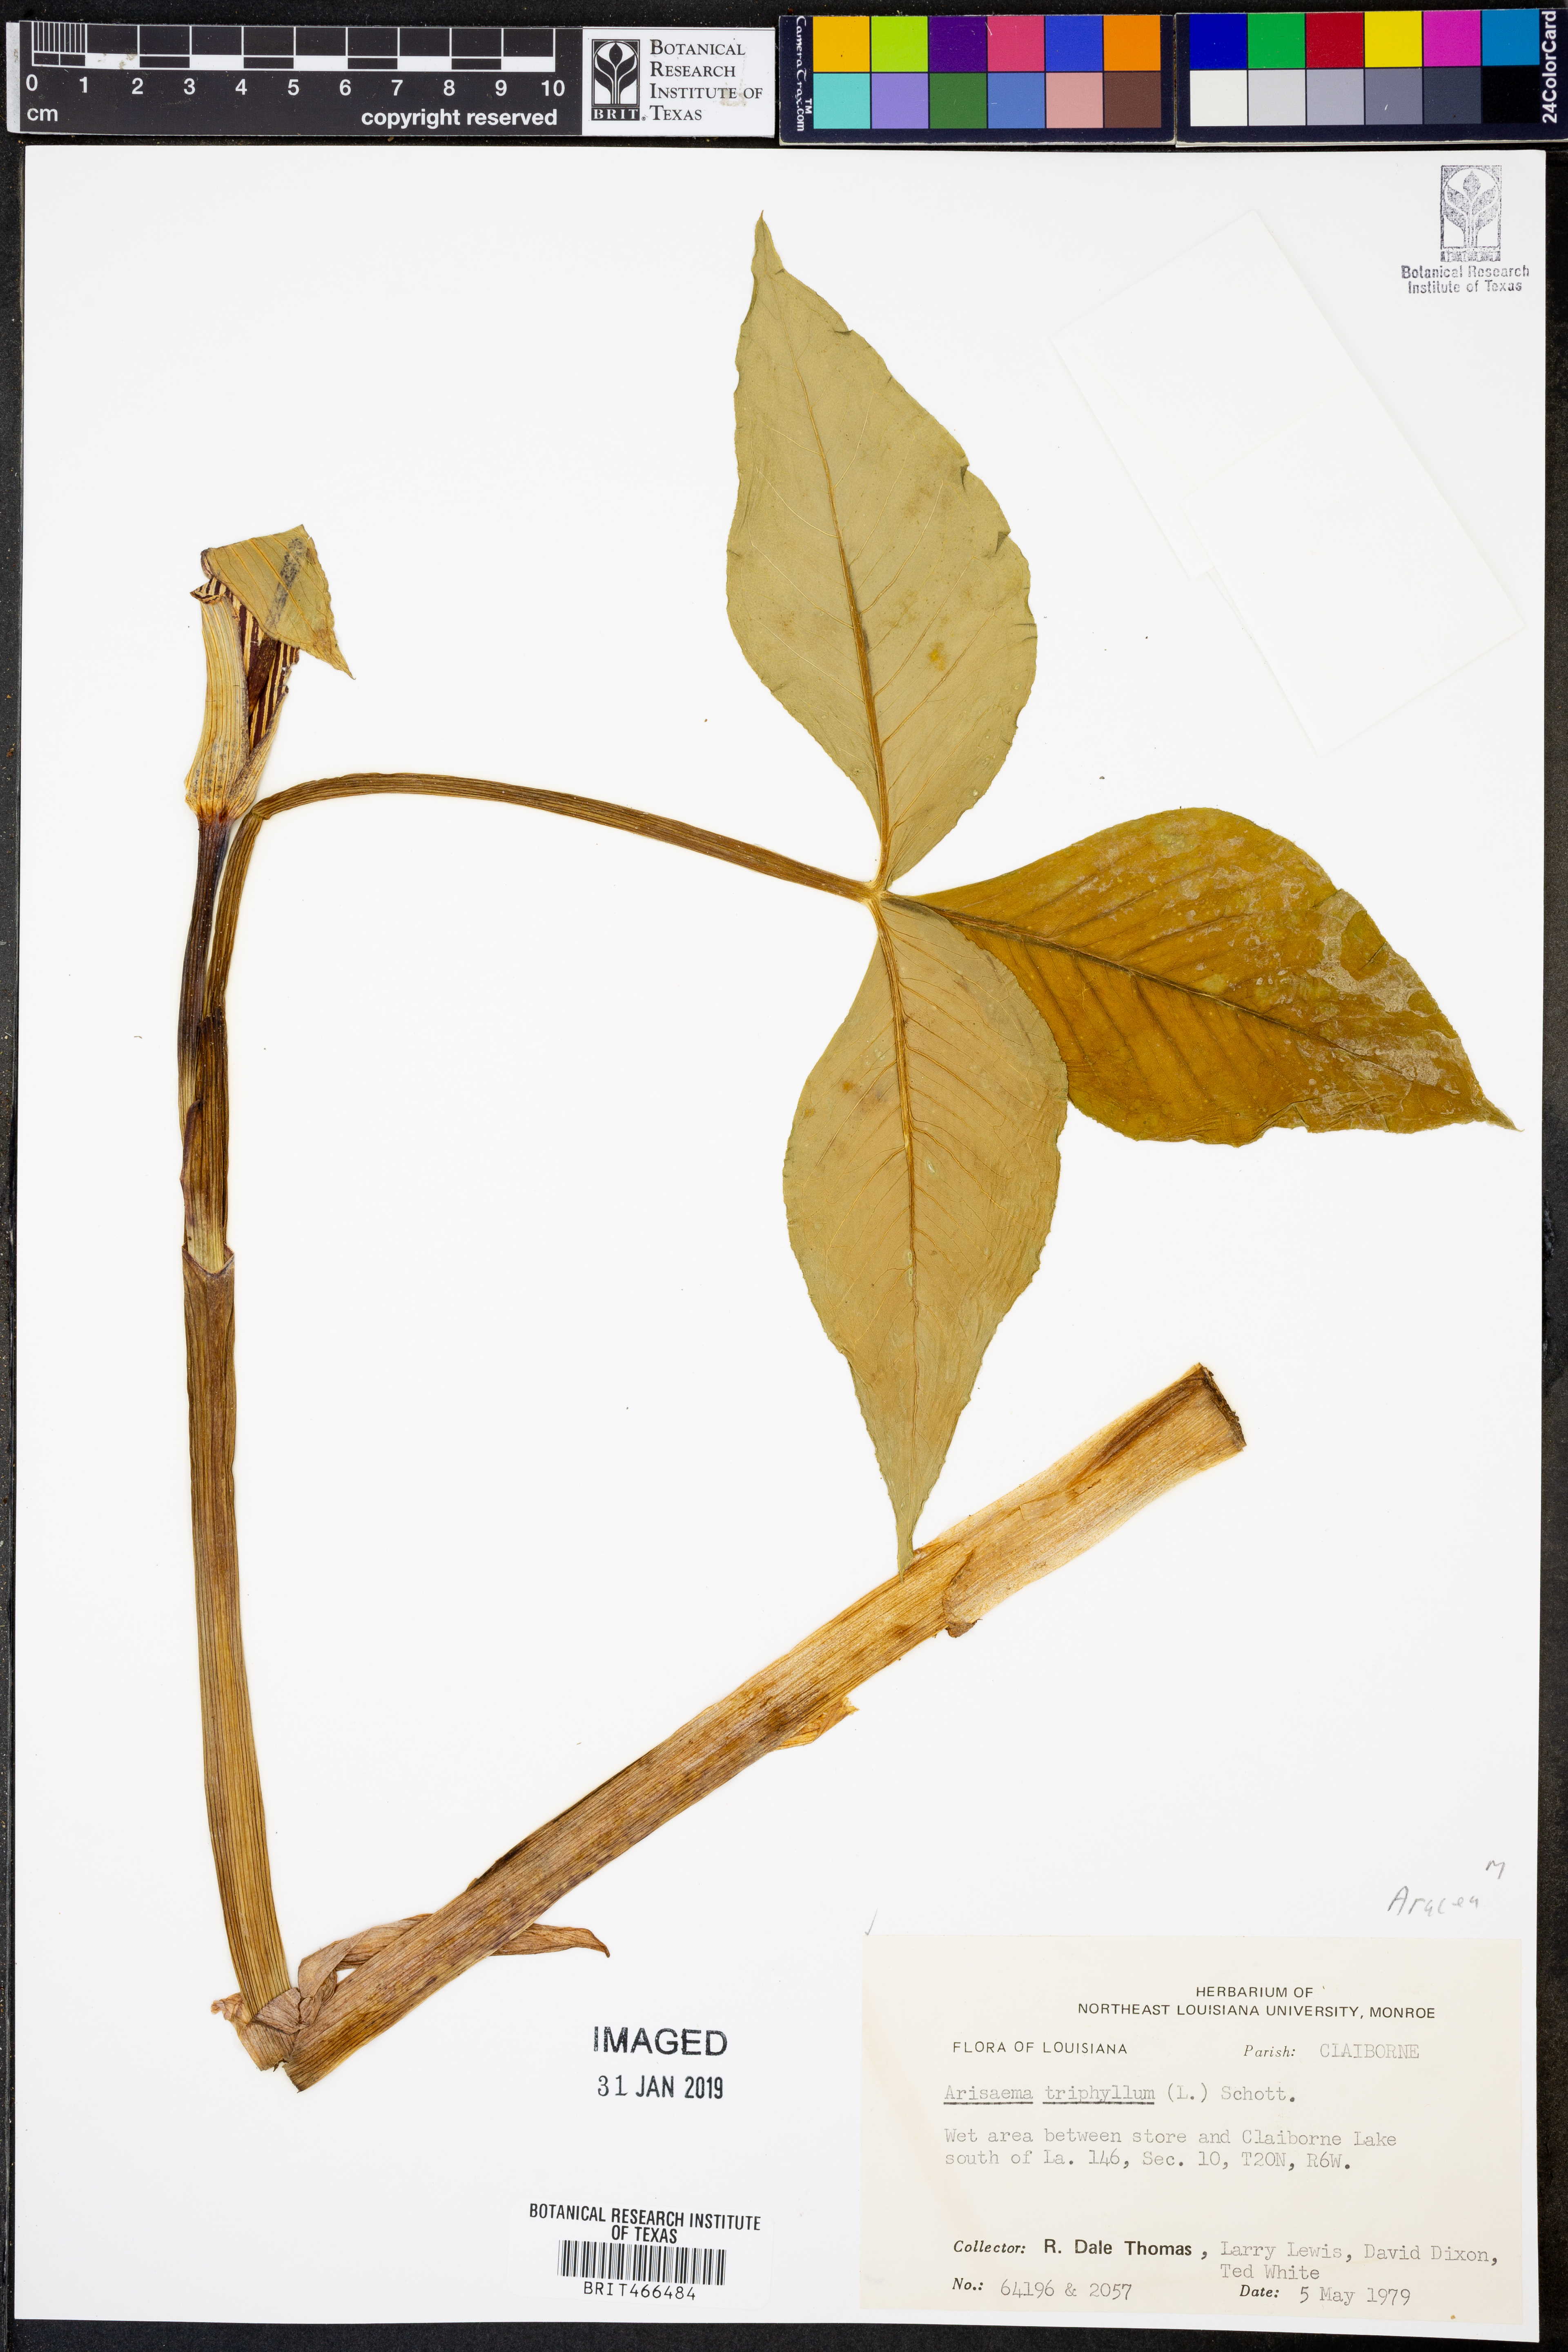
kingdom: Plantae
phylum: Tracheophyta
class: Liliopsida
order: Alismatales
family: Araceae
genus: Arisaema
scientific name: Arisaema triphyllum
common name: Jack-in-the-pulpit
